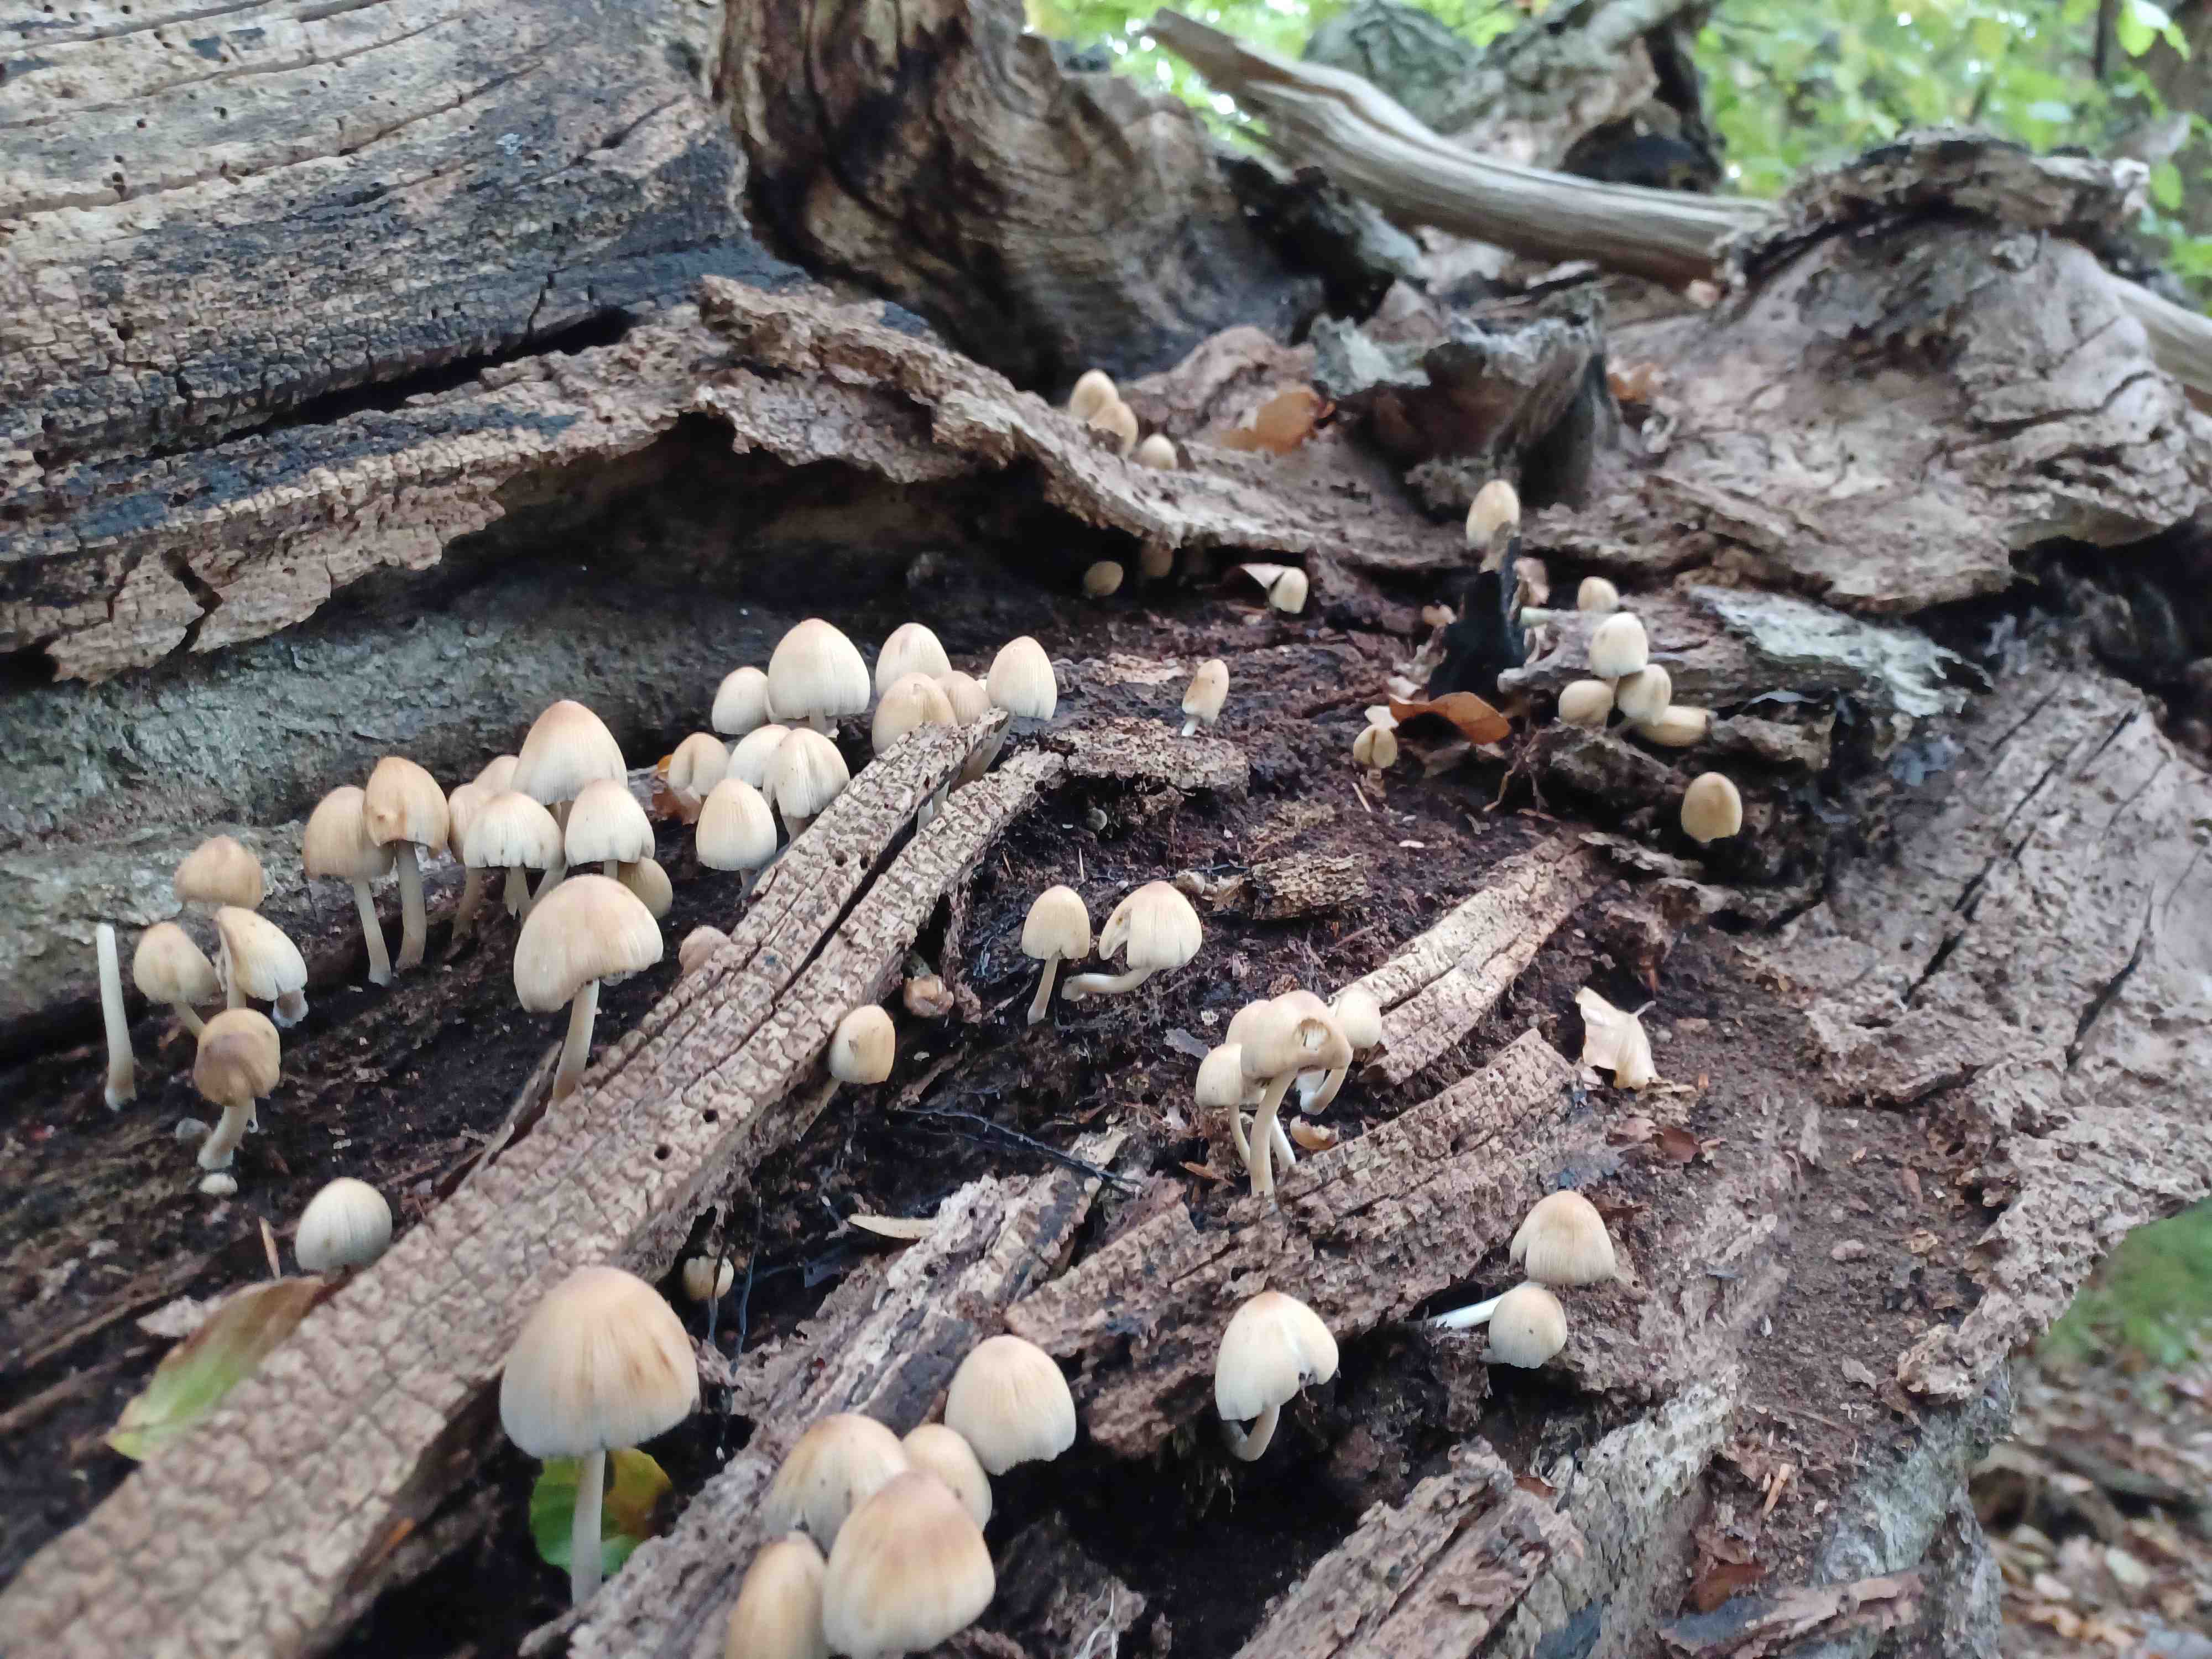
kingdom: Fungi
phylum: Basidiomycota
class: Agaricomycetes
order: Agaricales
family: Psathyrellaceae
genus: Coprinellus
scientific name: Coprinellus
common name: blækhat
